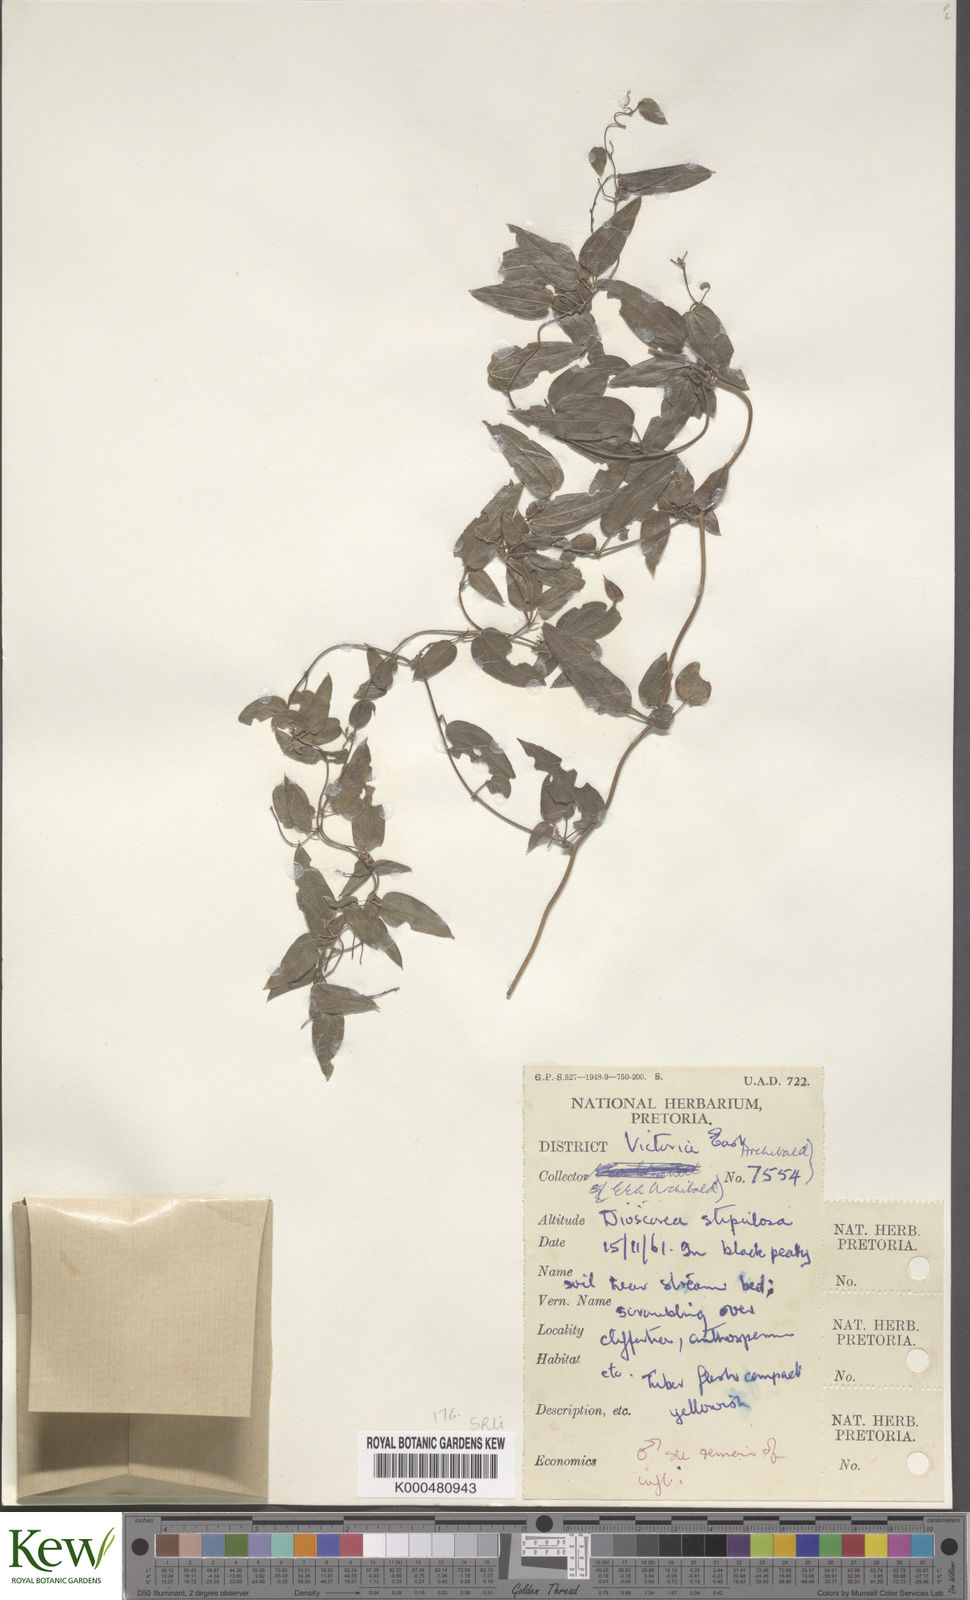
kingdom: Plantae
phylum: Tracheophyta
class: Liliopsida
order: Dioscoreales
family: Dioscoreaceae
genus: Dioscorea
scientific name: Dioscorea stipulosa
